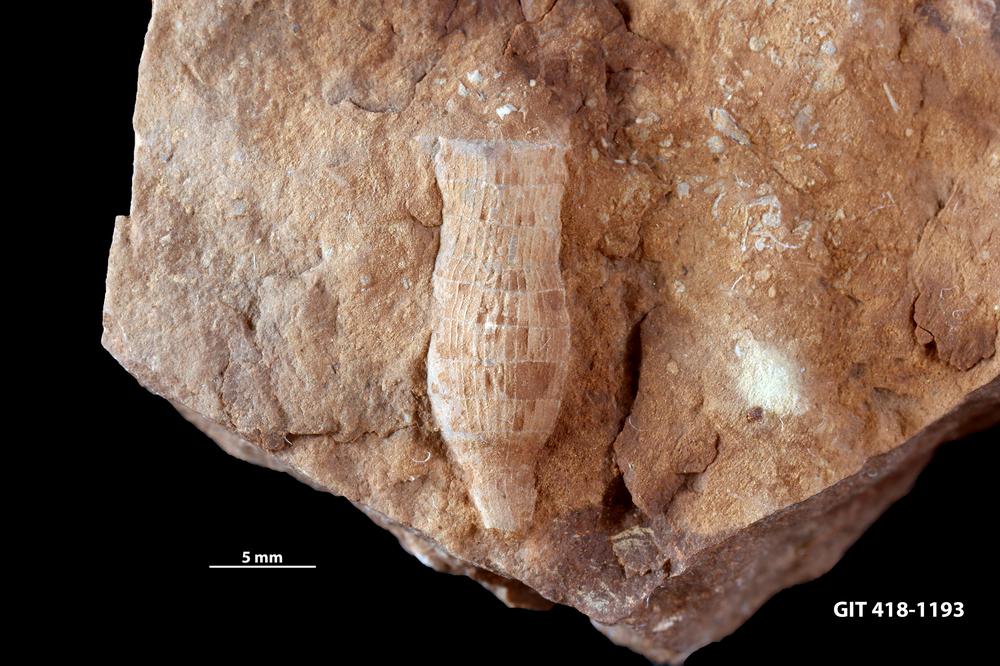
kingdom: Animalia
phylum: Porifera
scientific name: Porifera
